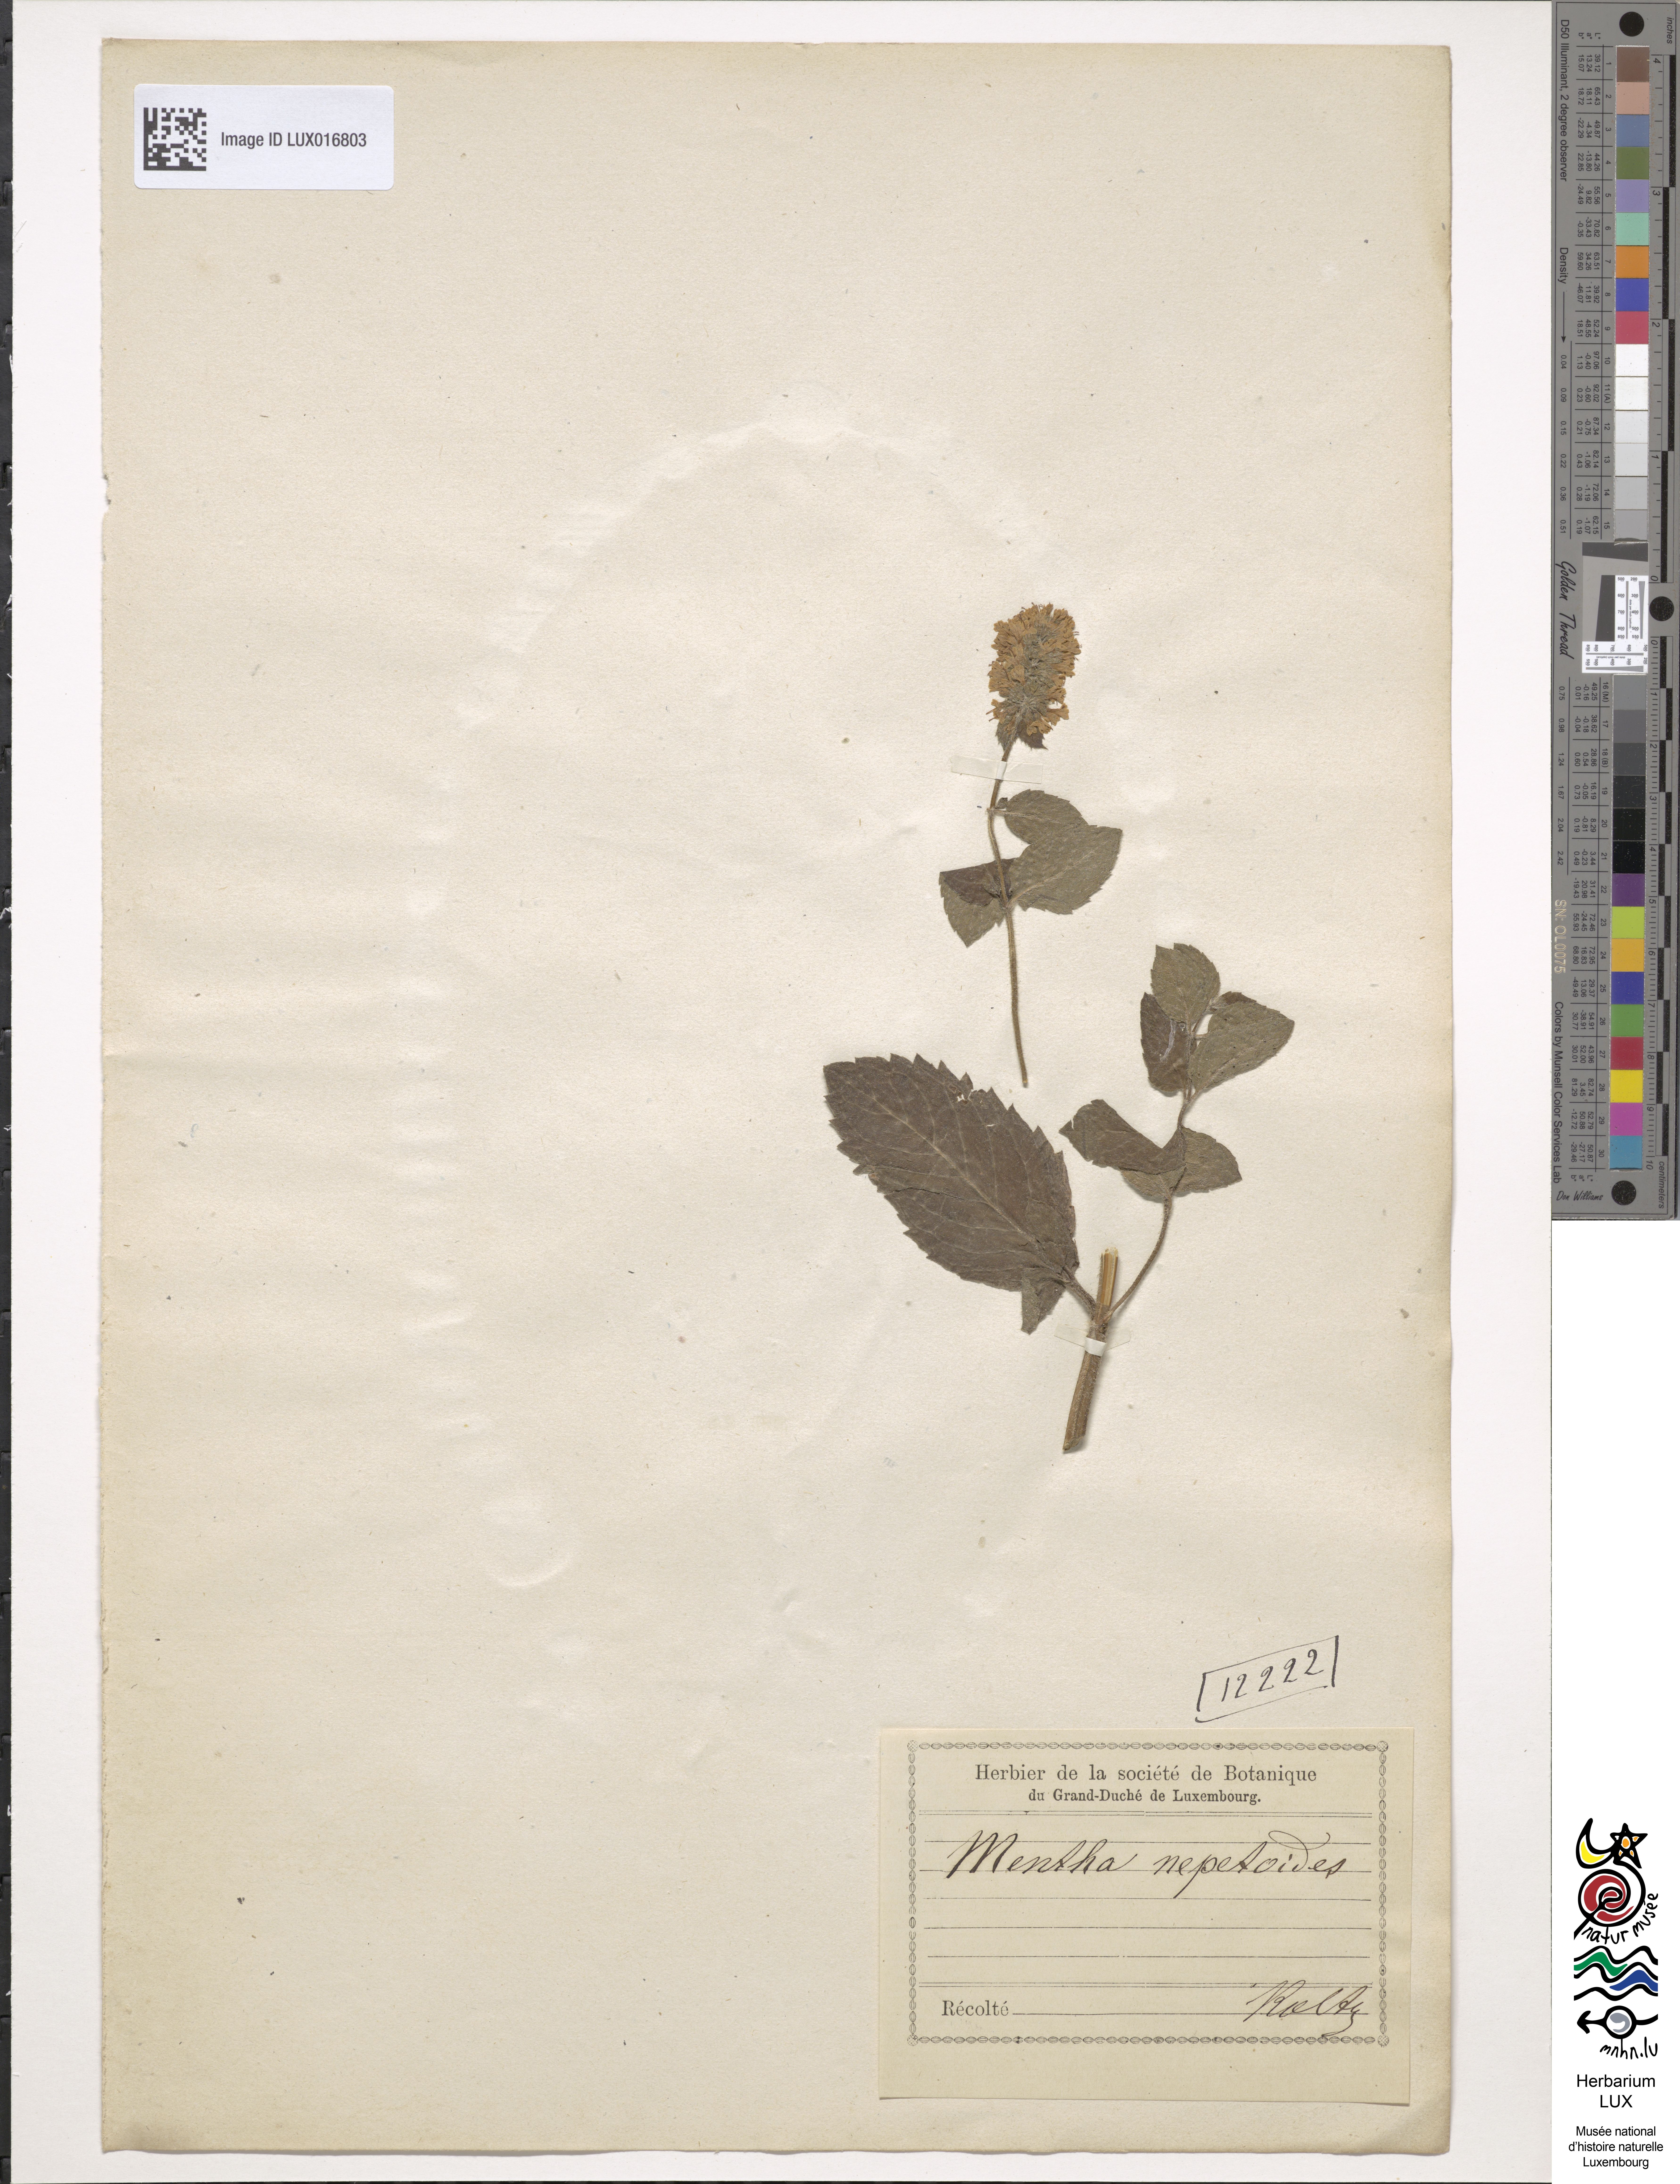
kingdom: Plantae
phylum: Tracheophyta
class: Magnoliopsida
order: Lamiales
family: Lamiaceae
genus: Mentha
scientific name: Mentha dumetorum
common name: Bush-loving mint
